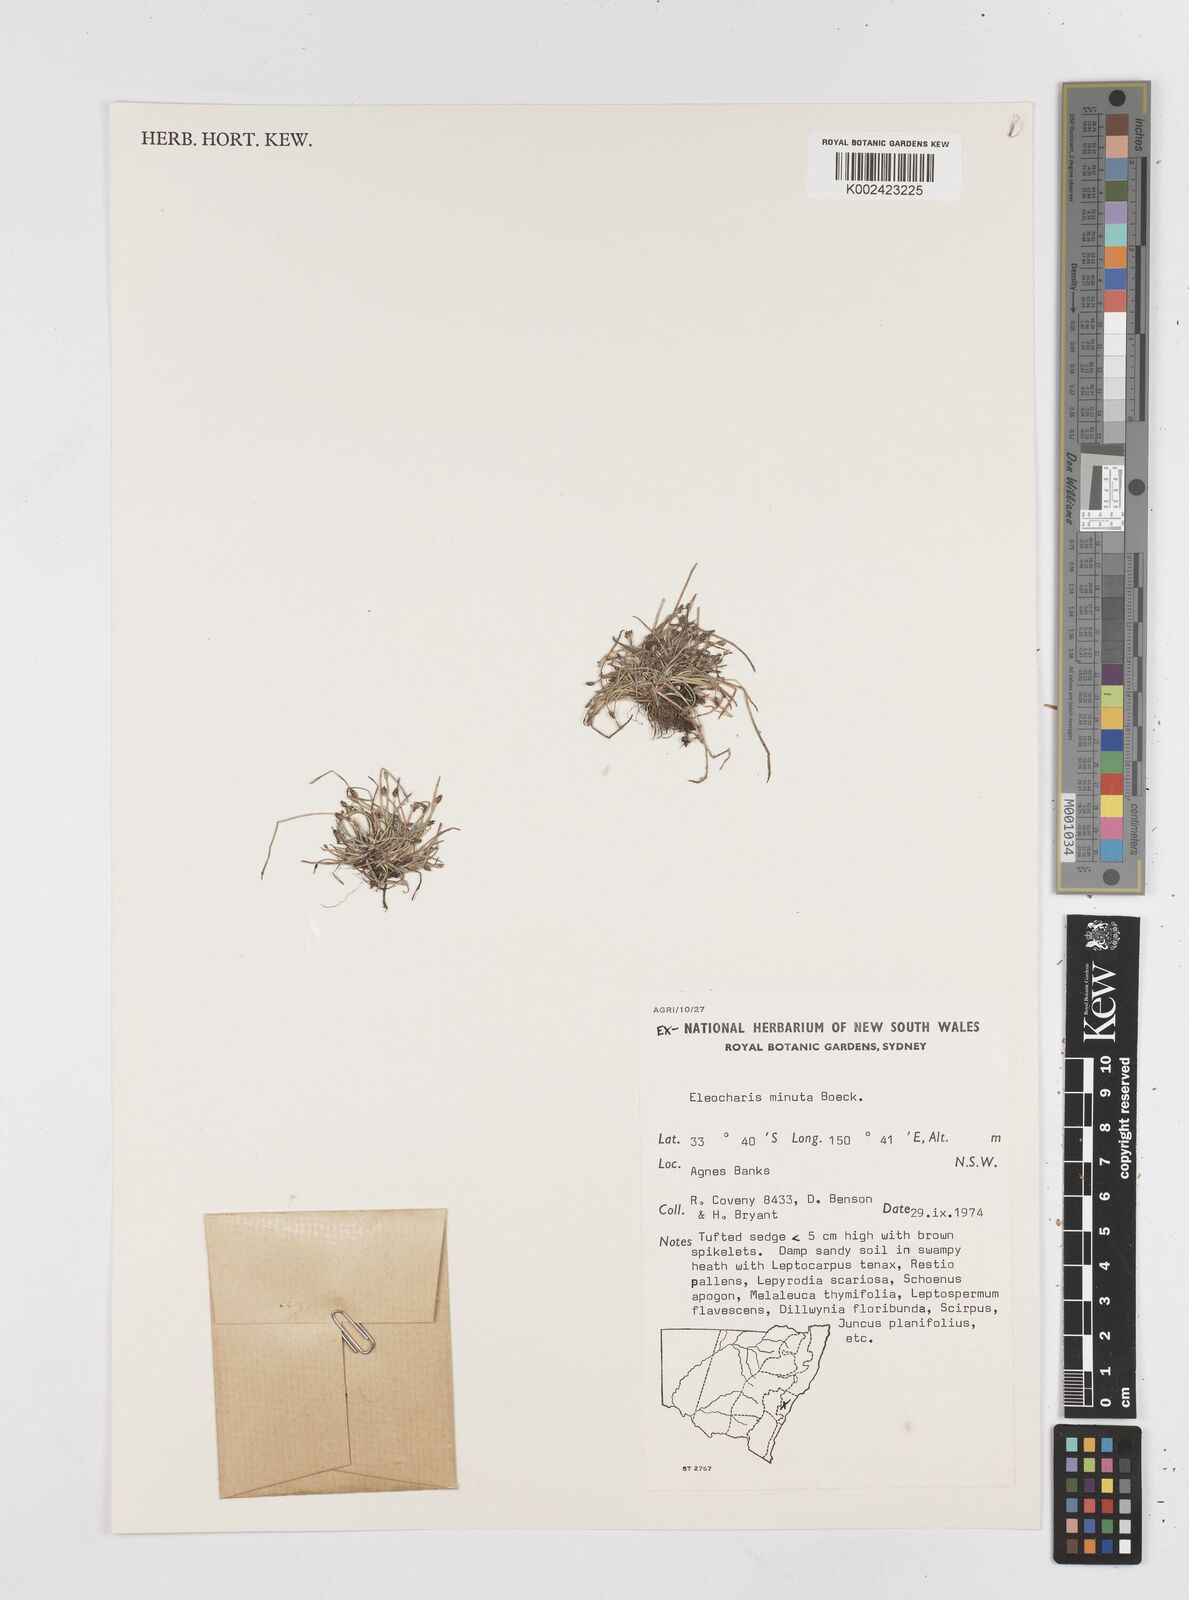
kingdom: Plantae
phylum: Tracheophyta
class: Liliopsida
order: Poales
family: Cyperaceae
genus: Eleocharis
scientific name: Eleocharis minuta
